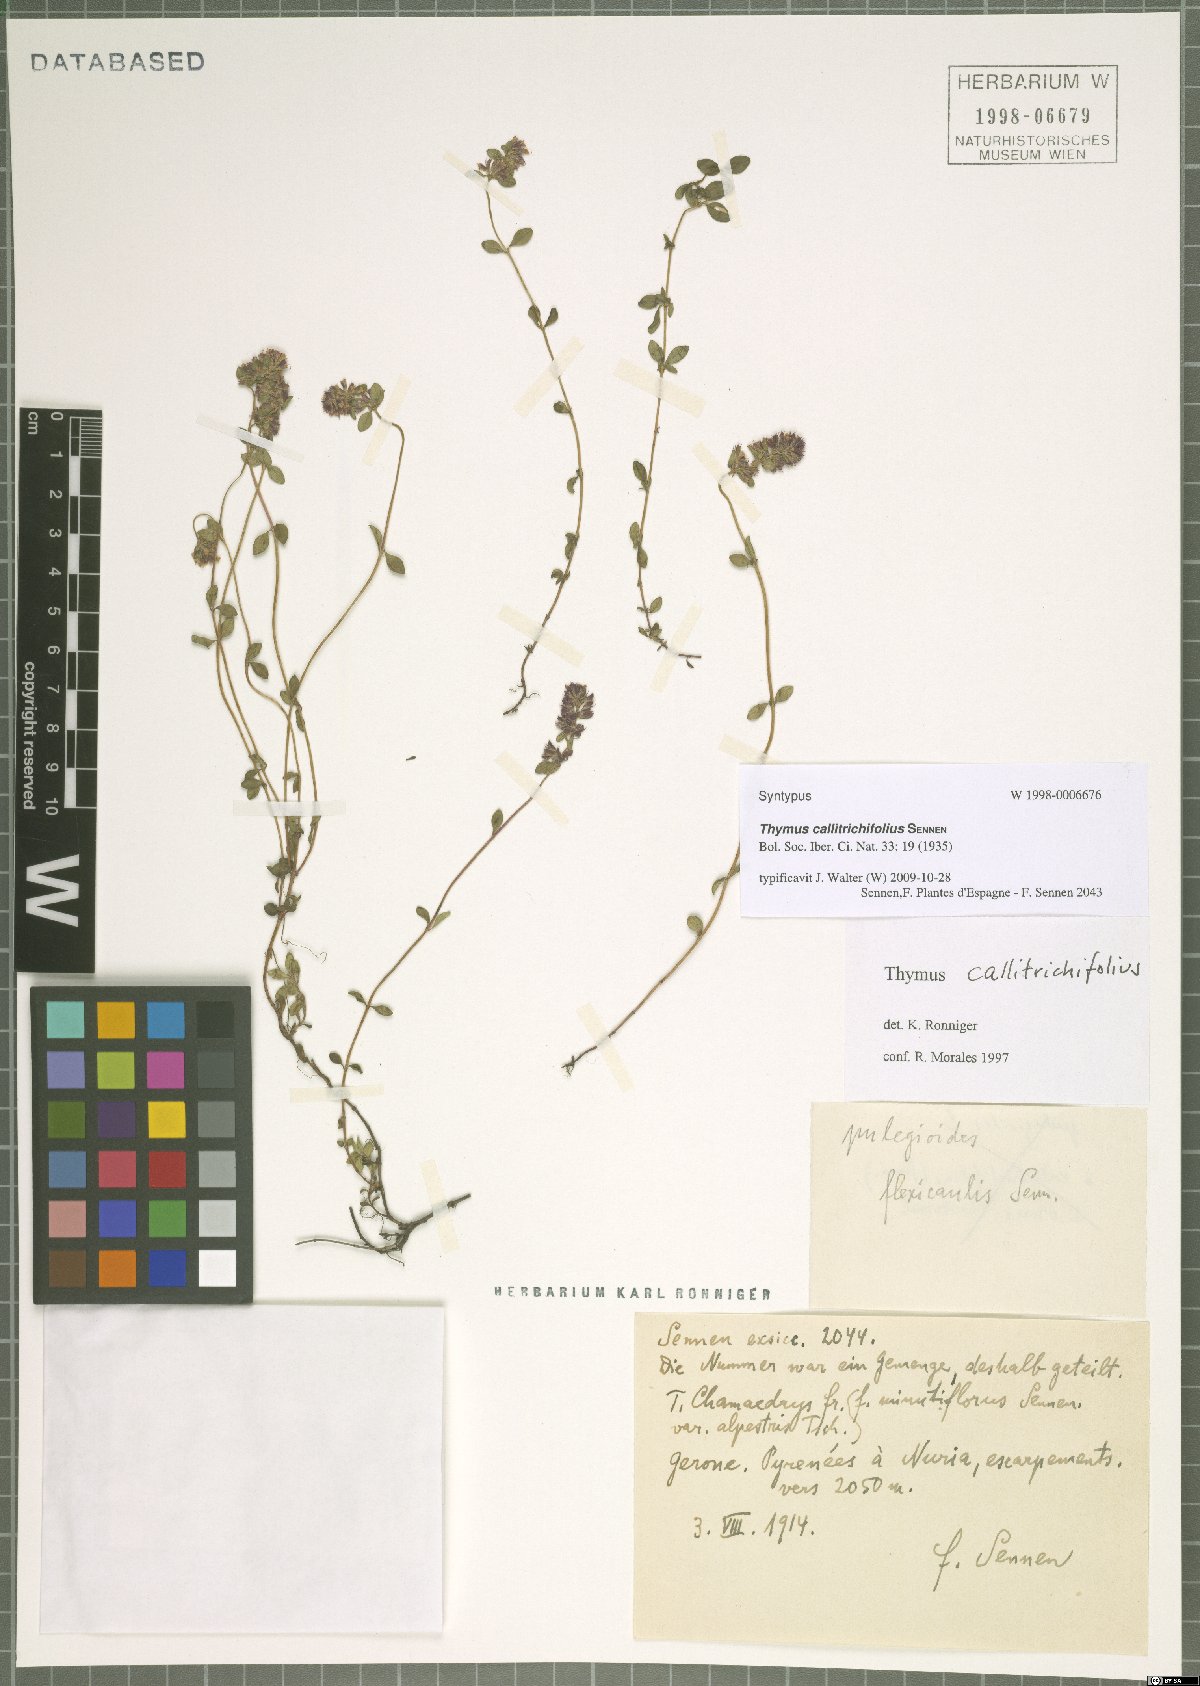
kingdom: Plantae
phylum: Tracheophyta
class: Magnoliopsida
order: Lamiales
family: Lamiaceae
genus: Thymus
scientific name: Thymus pulegioides
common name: Large thyme
